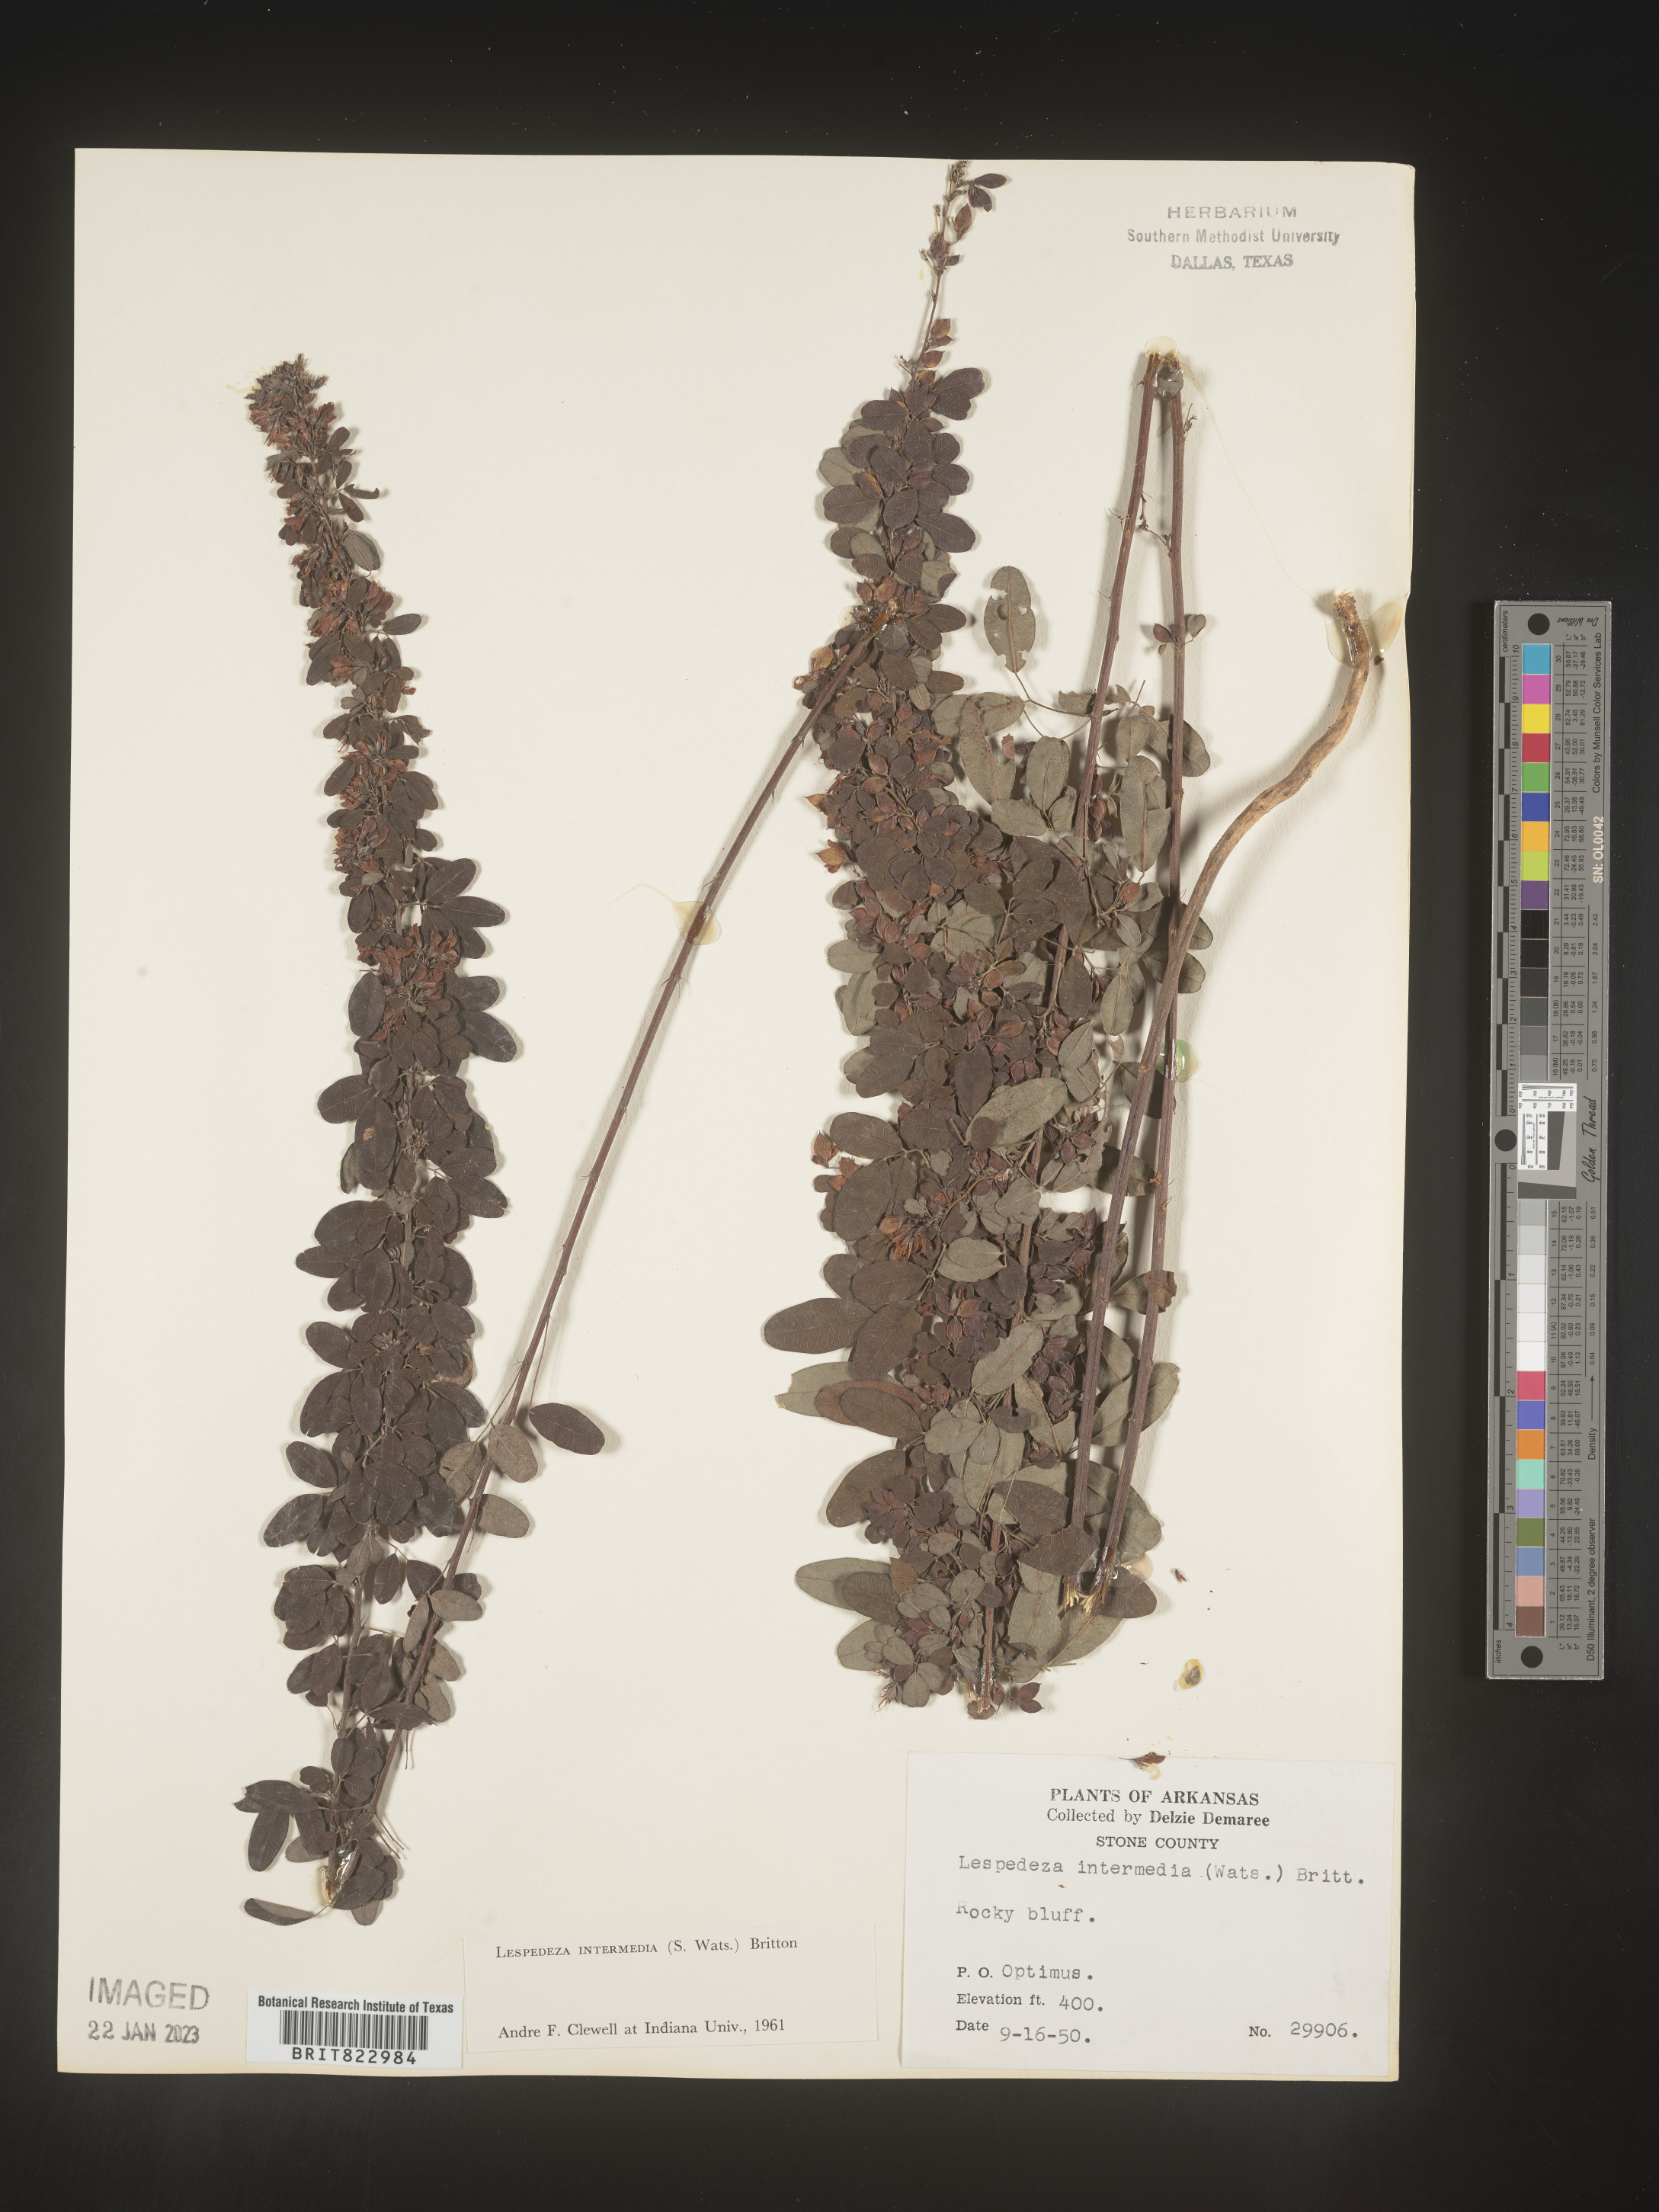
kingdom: Plantae
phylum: Tracheophyta
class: Magnoliopsida
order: Fabales
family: Fabaceae
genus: Lespedeza
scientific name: Lespedeza
